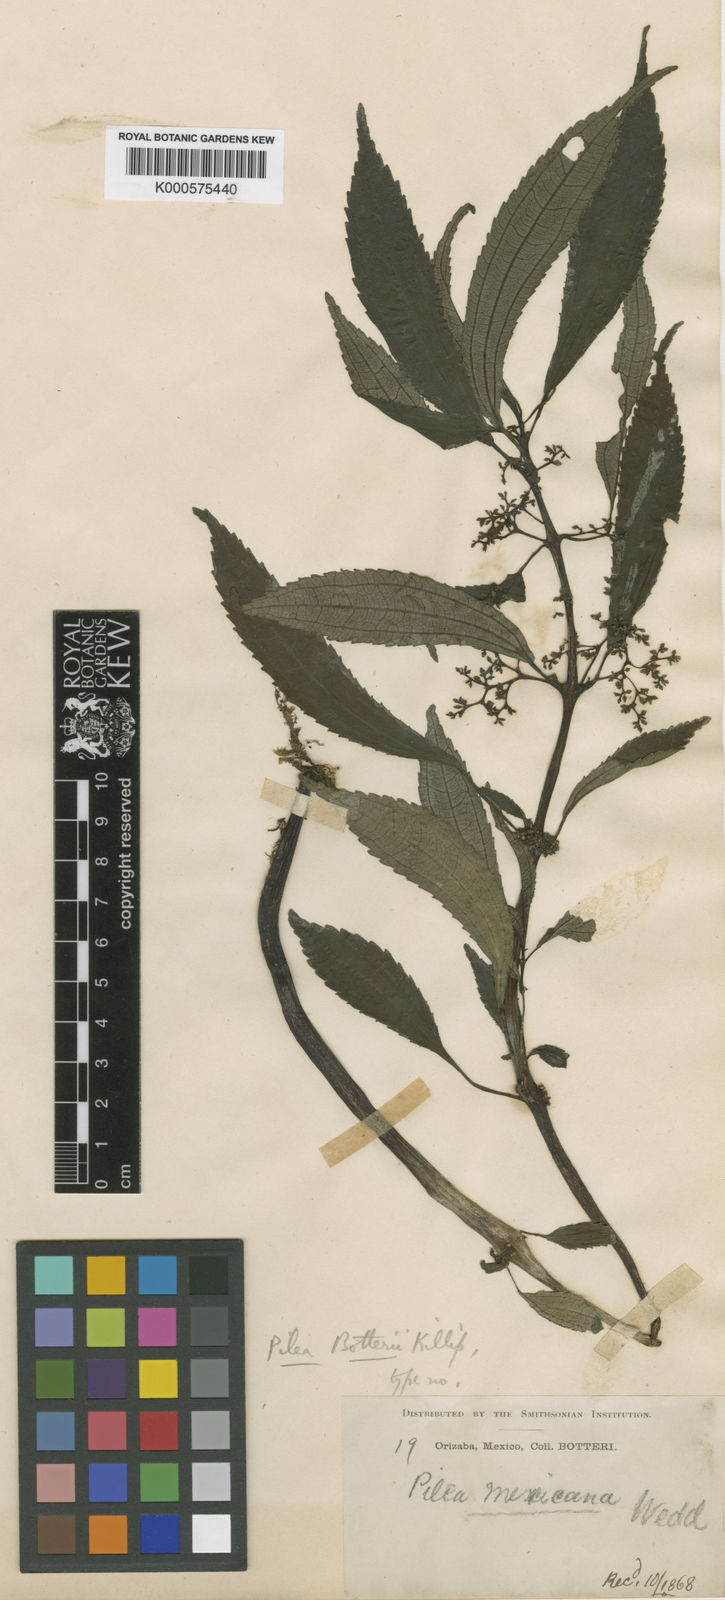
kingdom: Plantae
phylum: Tracheophyta
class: Magnoliopsida
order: Rosales
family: Urticaceae
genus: Pilea
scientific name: Pilea mexicana
